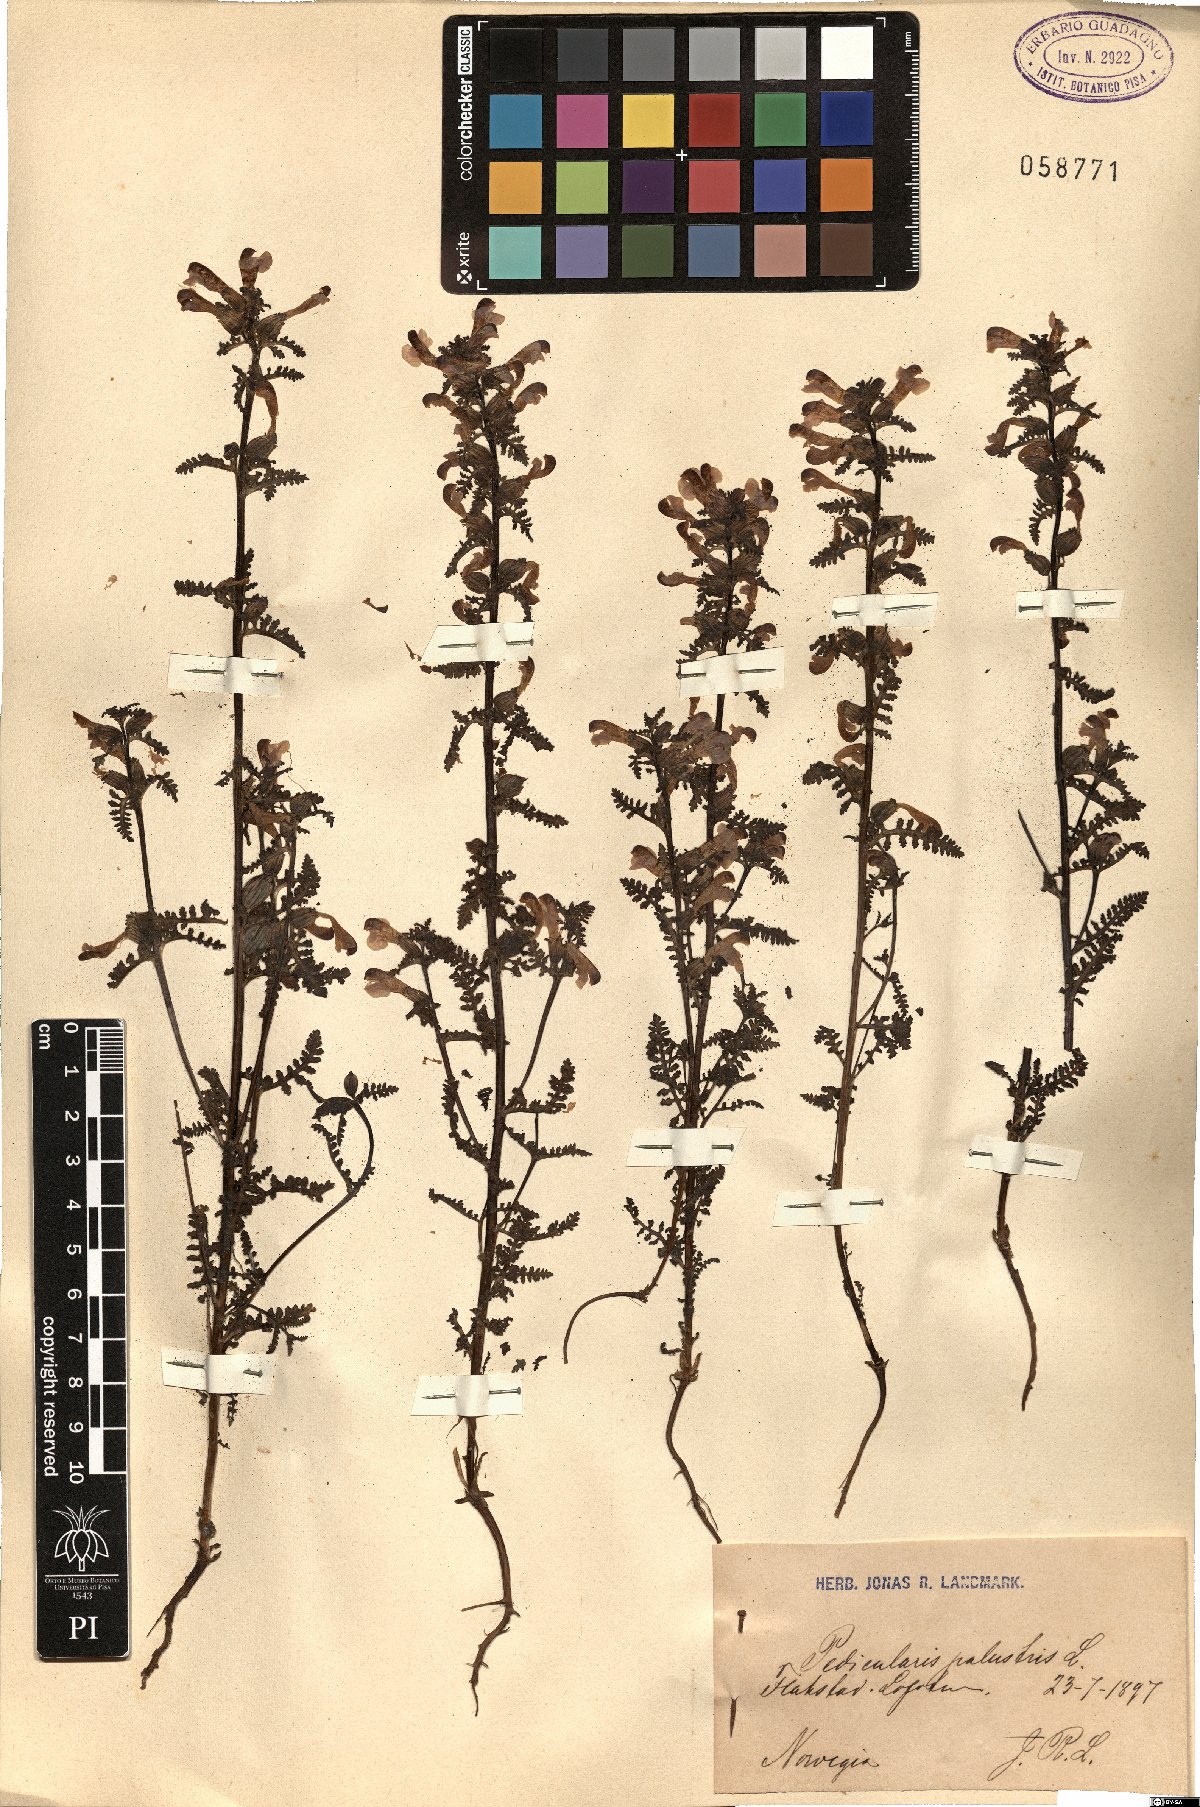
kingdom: Plantae
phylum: Tracheophyta
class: Magnoliopsida
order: Lamiales
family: Orobanchaceae
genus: Pedicularis
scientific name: Pedicularis palustris
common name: Marsh lousewort
